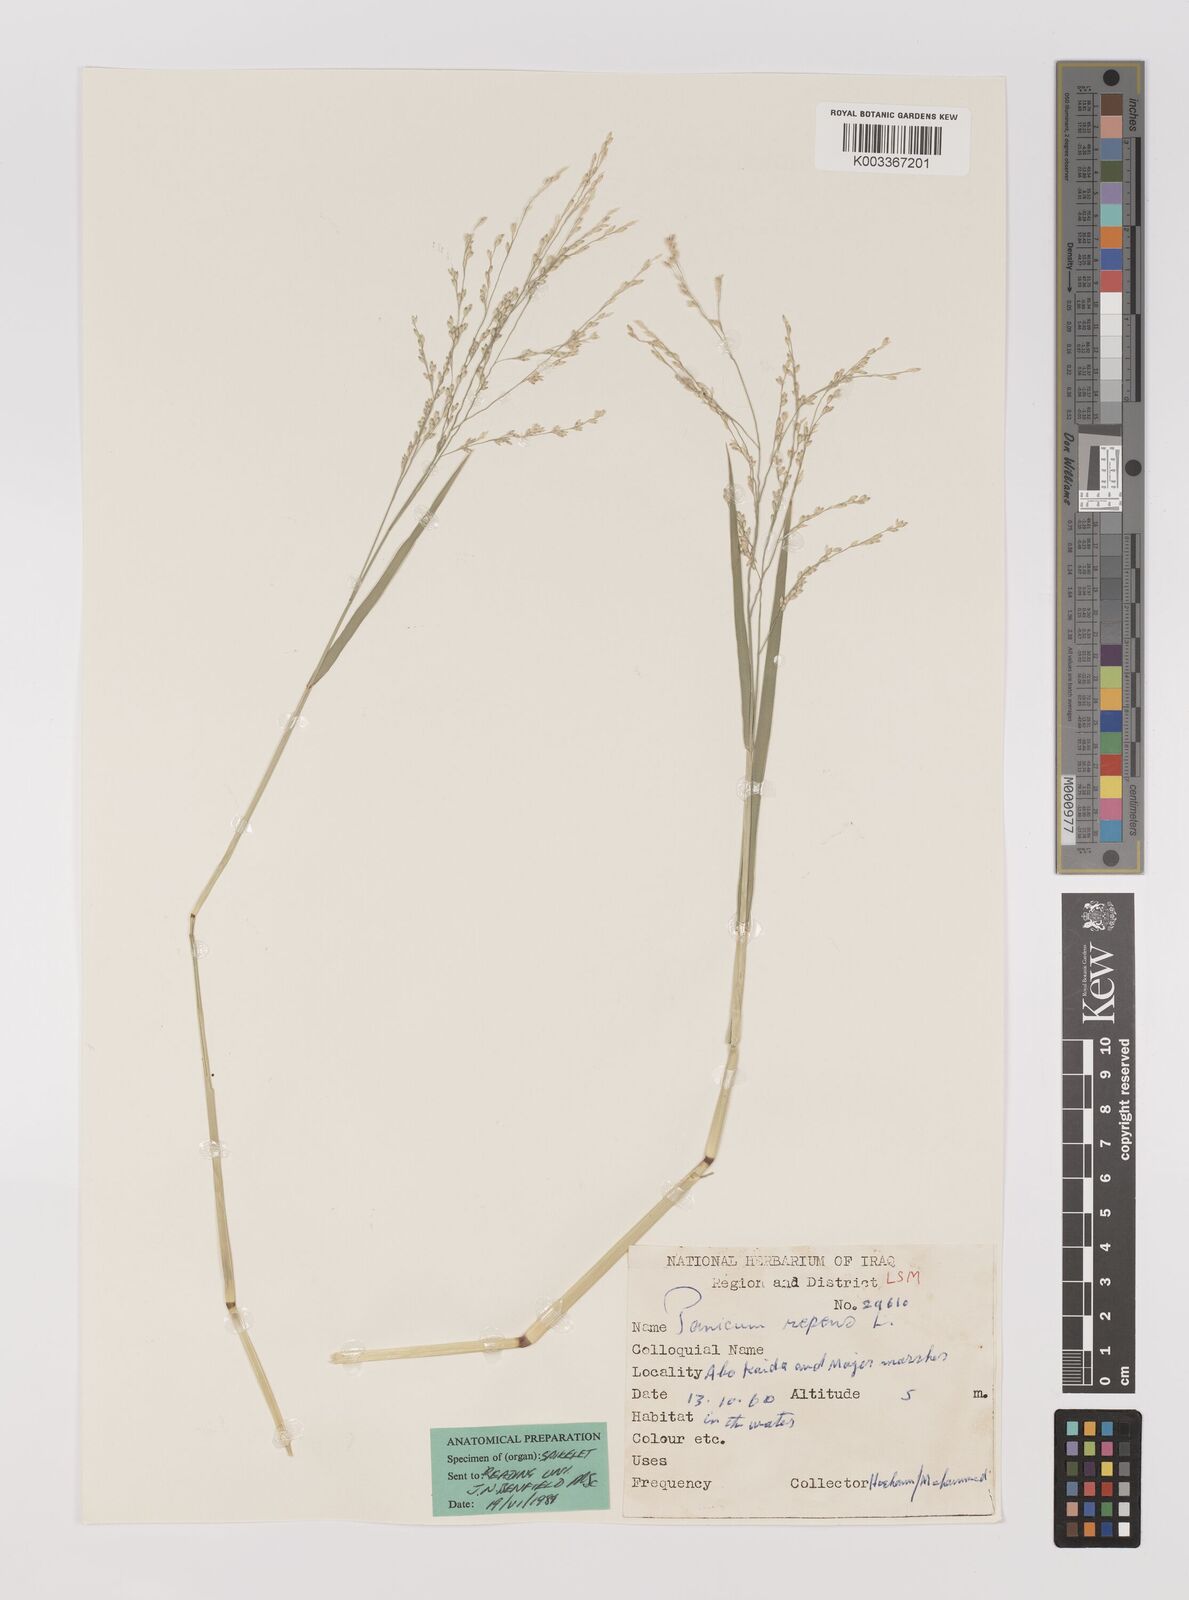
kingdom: Plantae
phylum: Tracheophyta
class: Liliopsida
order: Poales
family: Poaceae
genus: Panicum
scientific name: Panicum repens
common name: Torpedo grass
